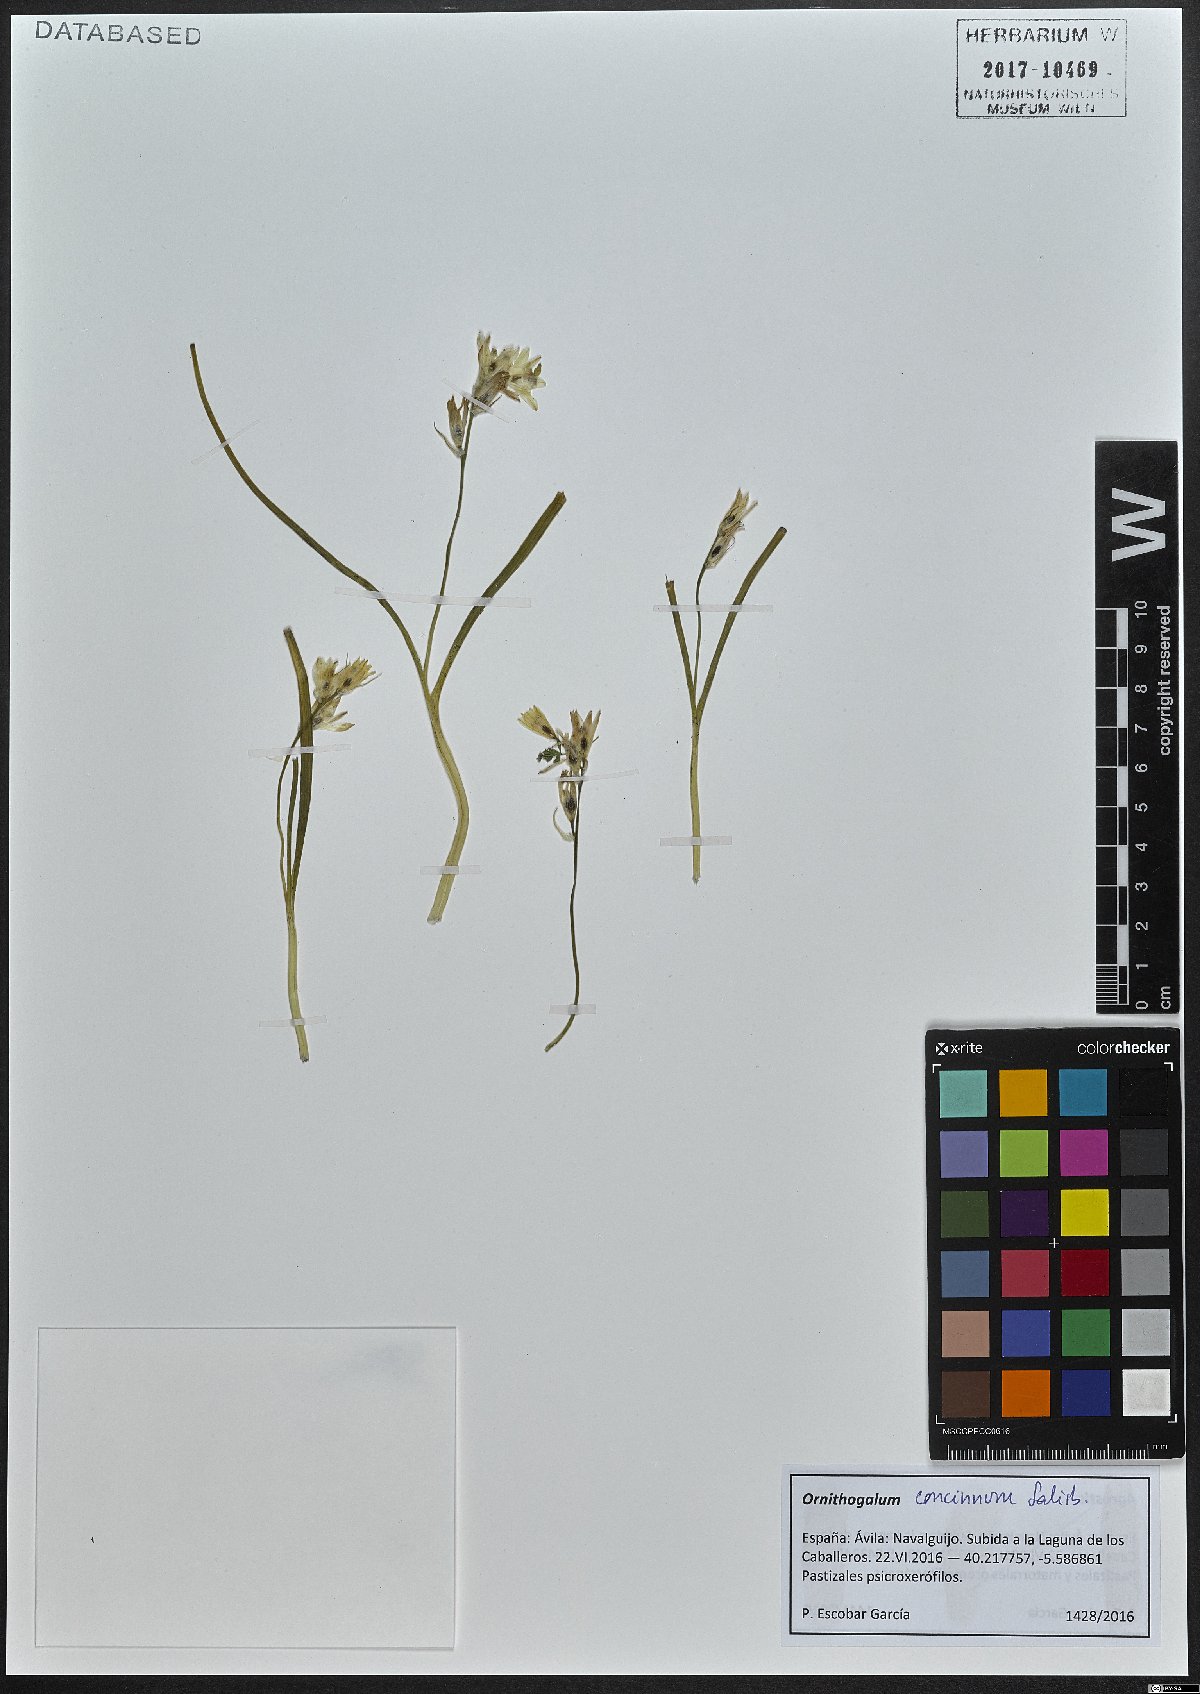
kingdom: Plantae
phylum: Tracheophyta
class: Liliopsida
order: Asparagales
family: Asparagaceae
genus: Ornithogalum
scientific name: Ornithogalum concinnum
